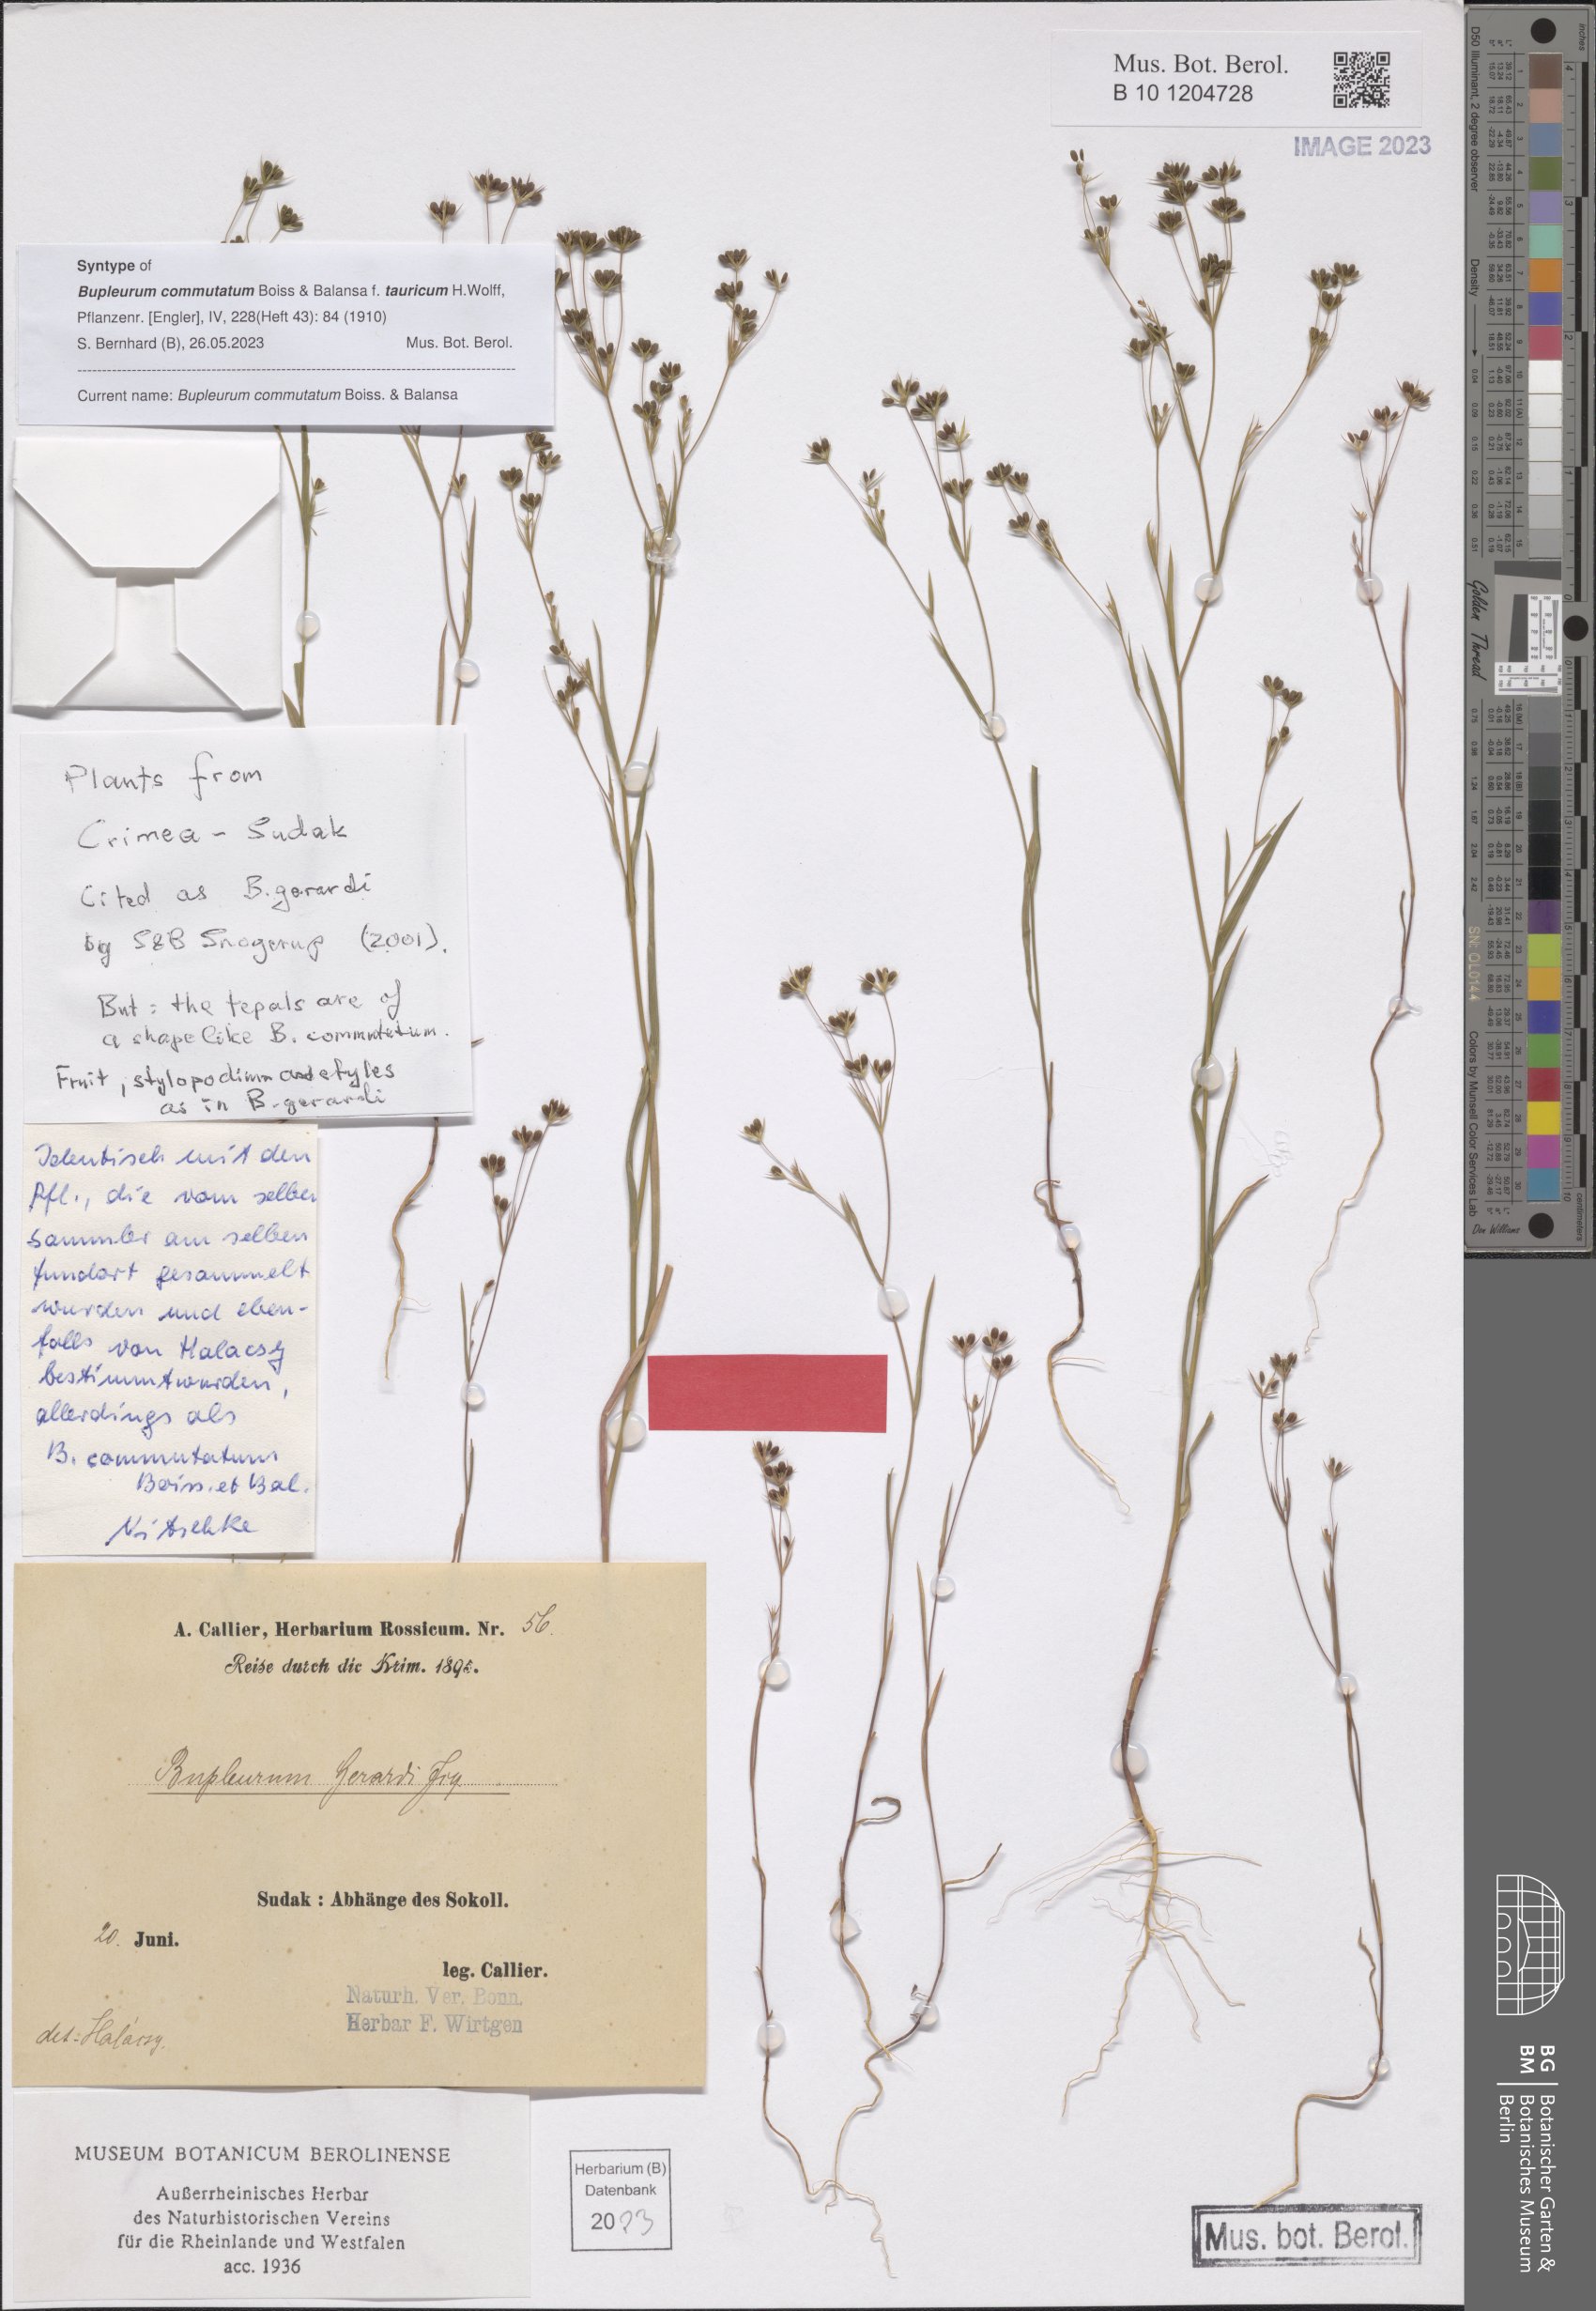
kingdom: Plantae
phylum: Tracheophyta
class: Magnoliopsida
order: Apiales
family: Apiaceae
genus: Bupleurum
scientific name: Bupleurum gerardi
